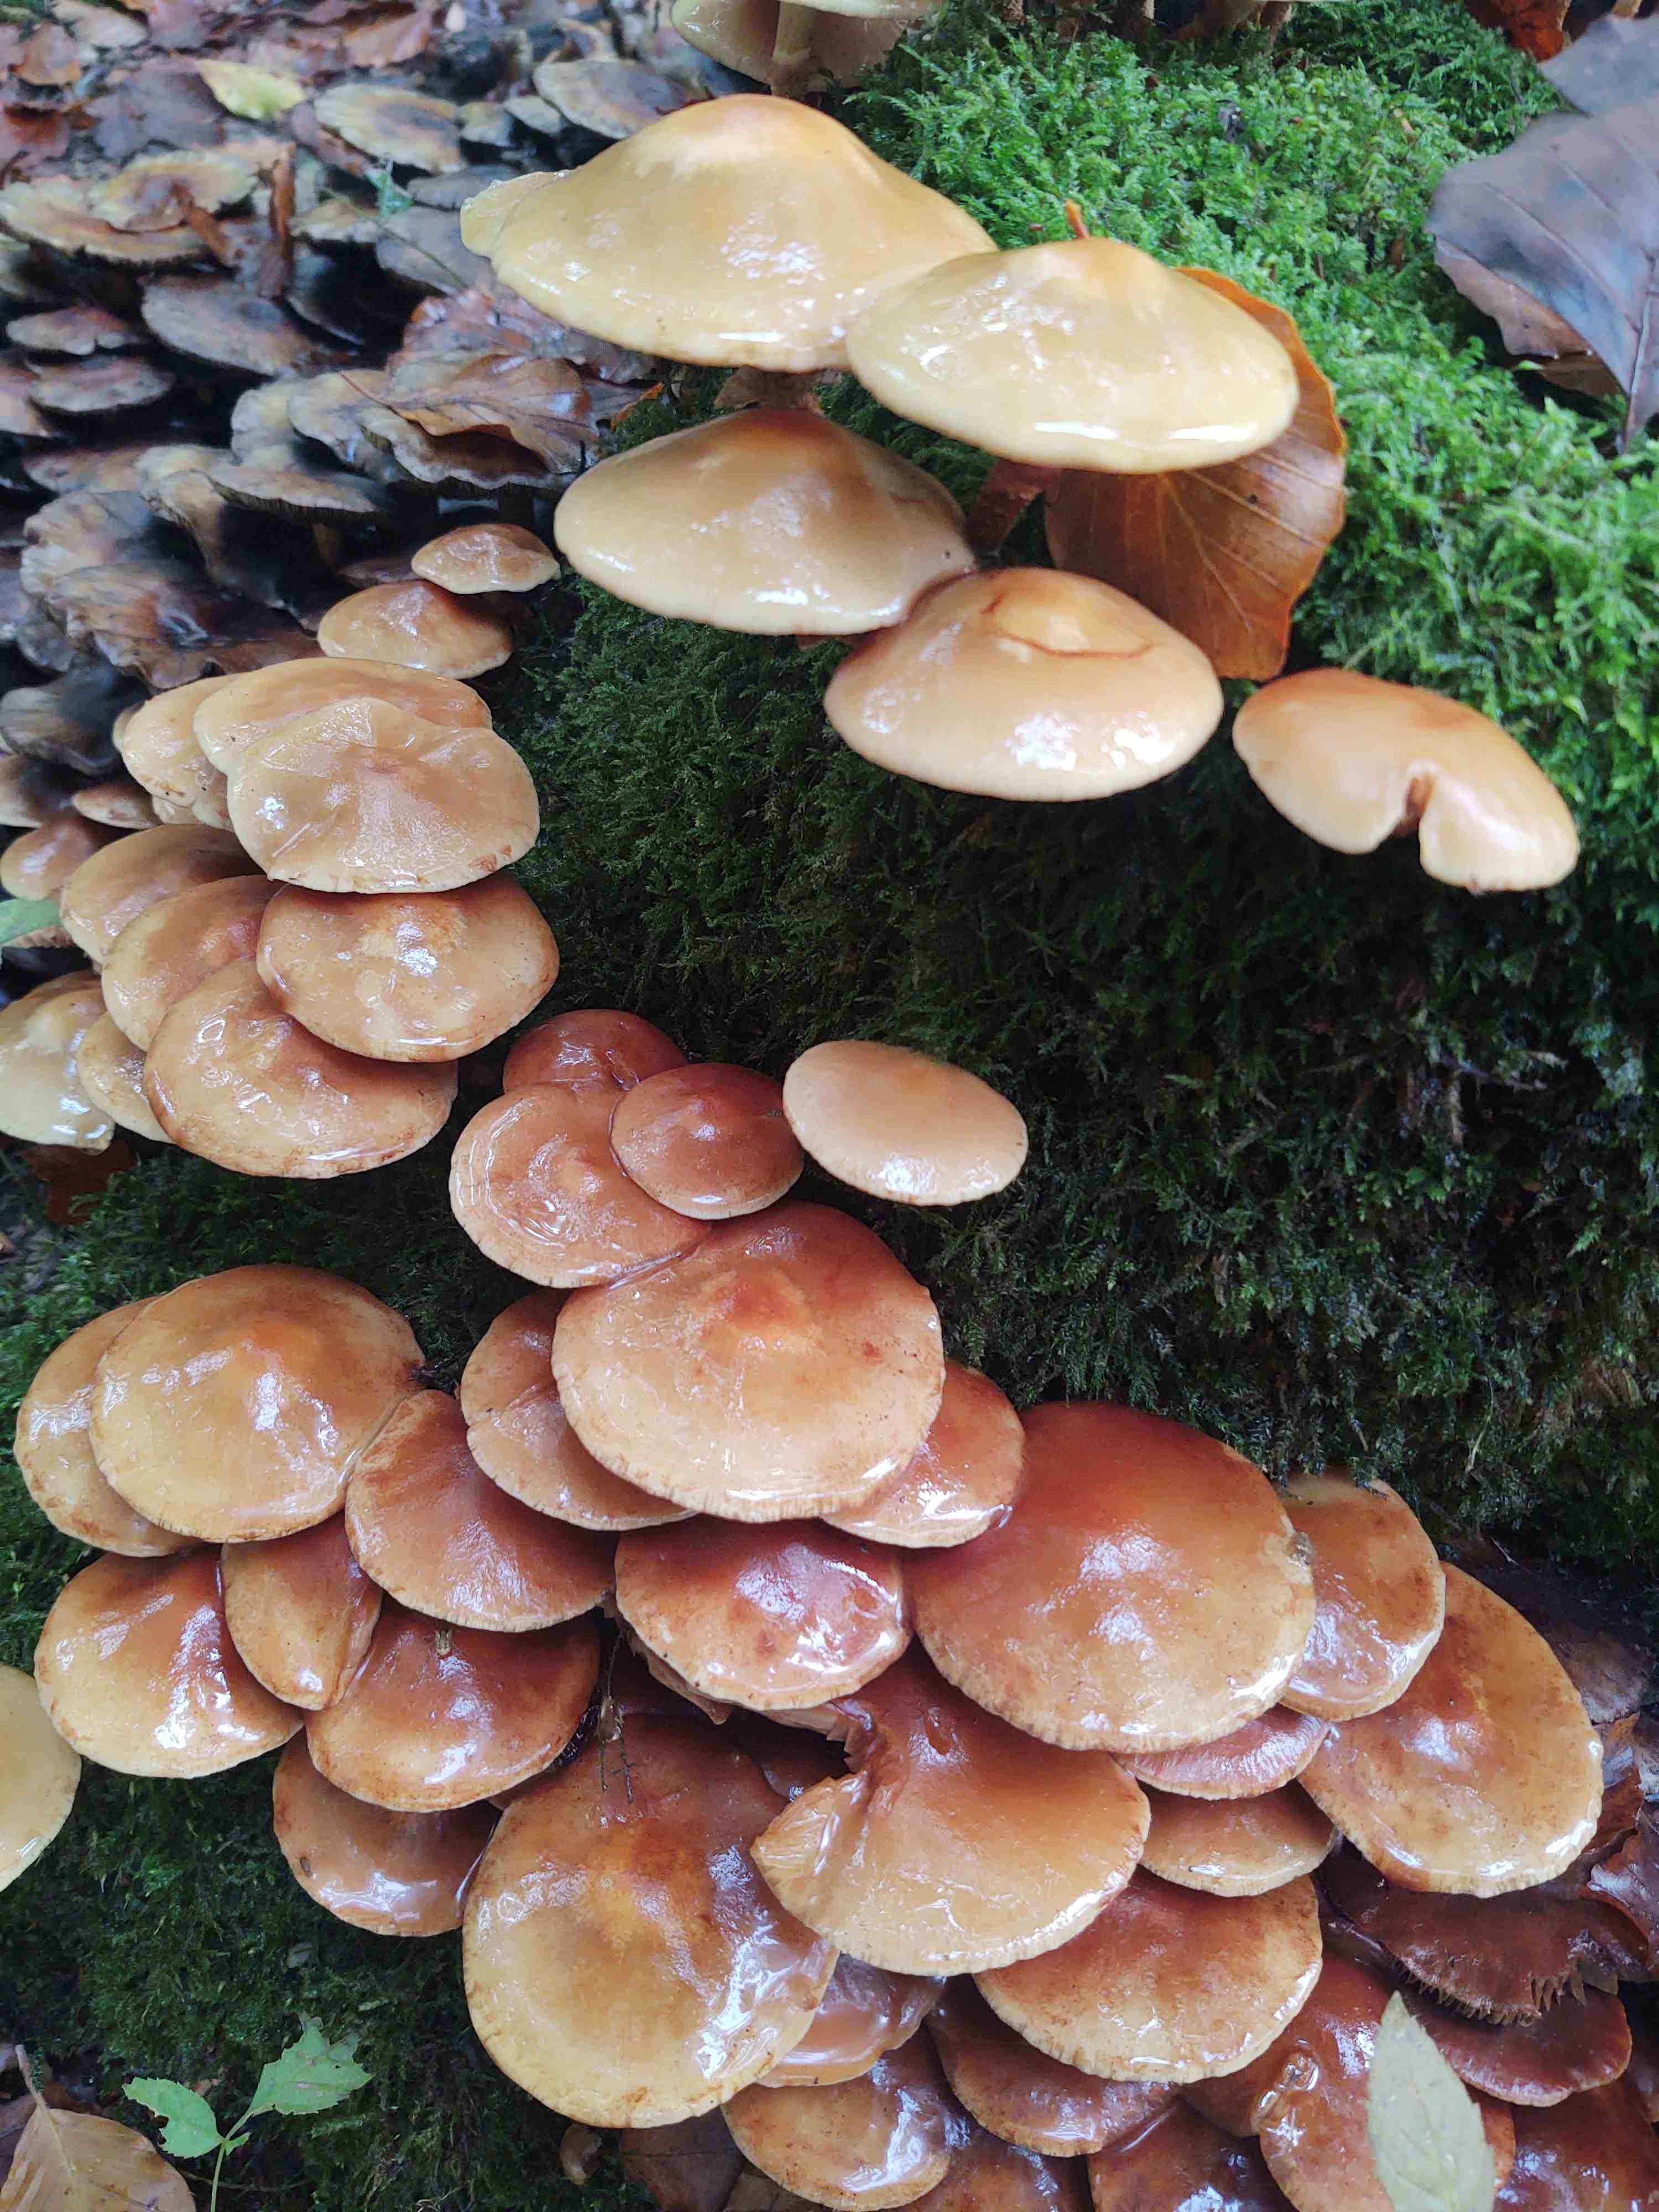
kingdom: Fungi
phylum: Basidiomycota
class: Agaricomycetes
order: Agaricales
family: Strophariaceae
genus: Kuehneromyces
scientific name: Kuehneromyces mutabilis
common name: foranderlig skælhat
